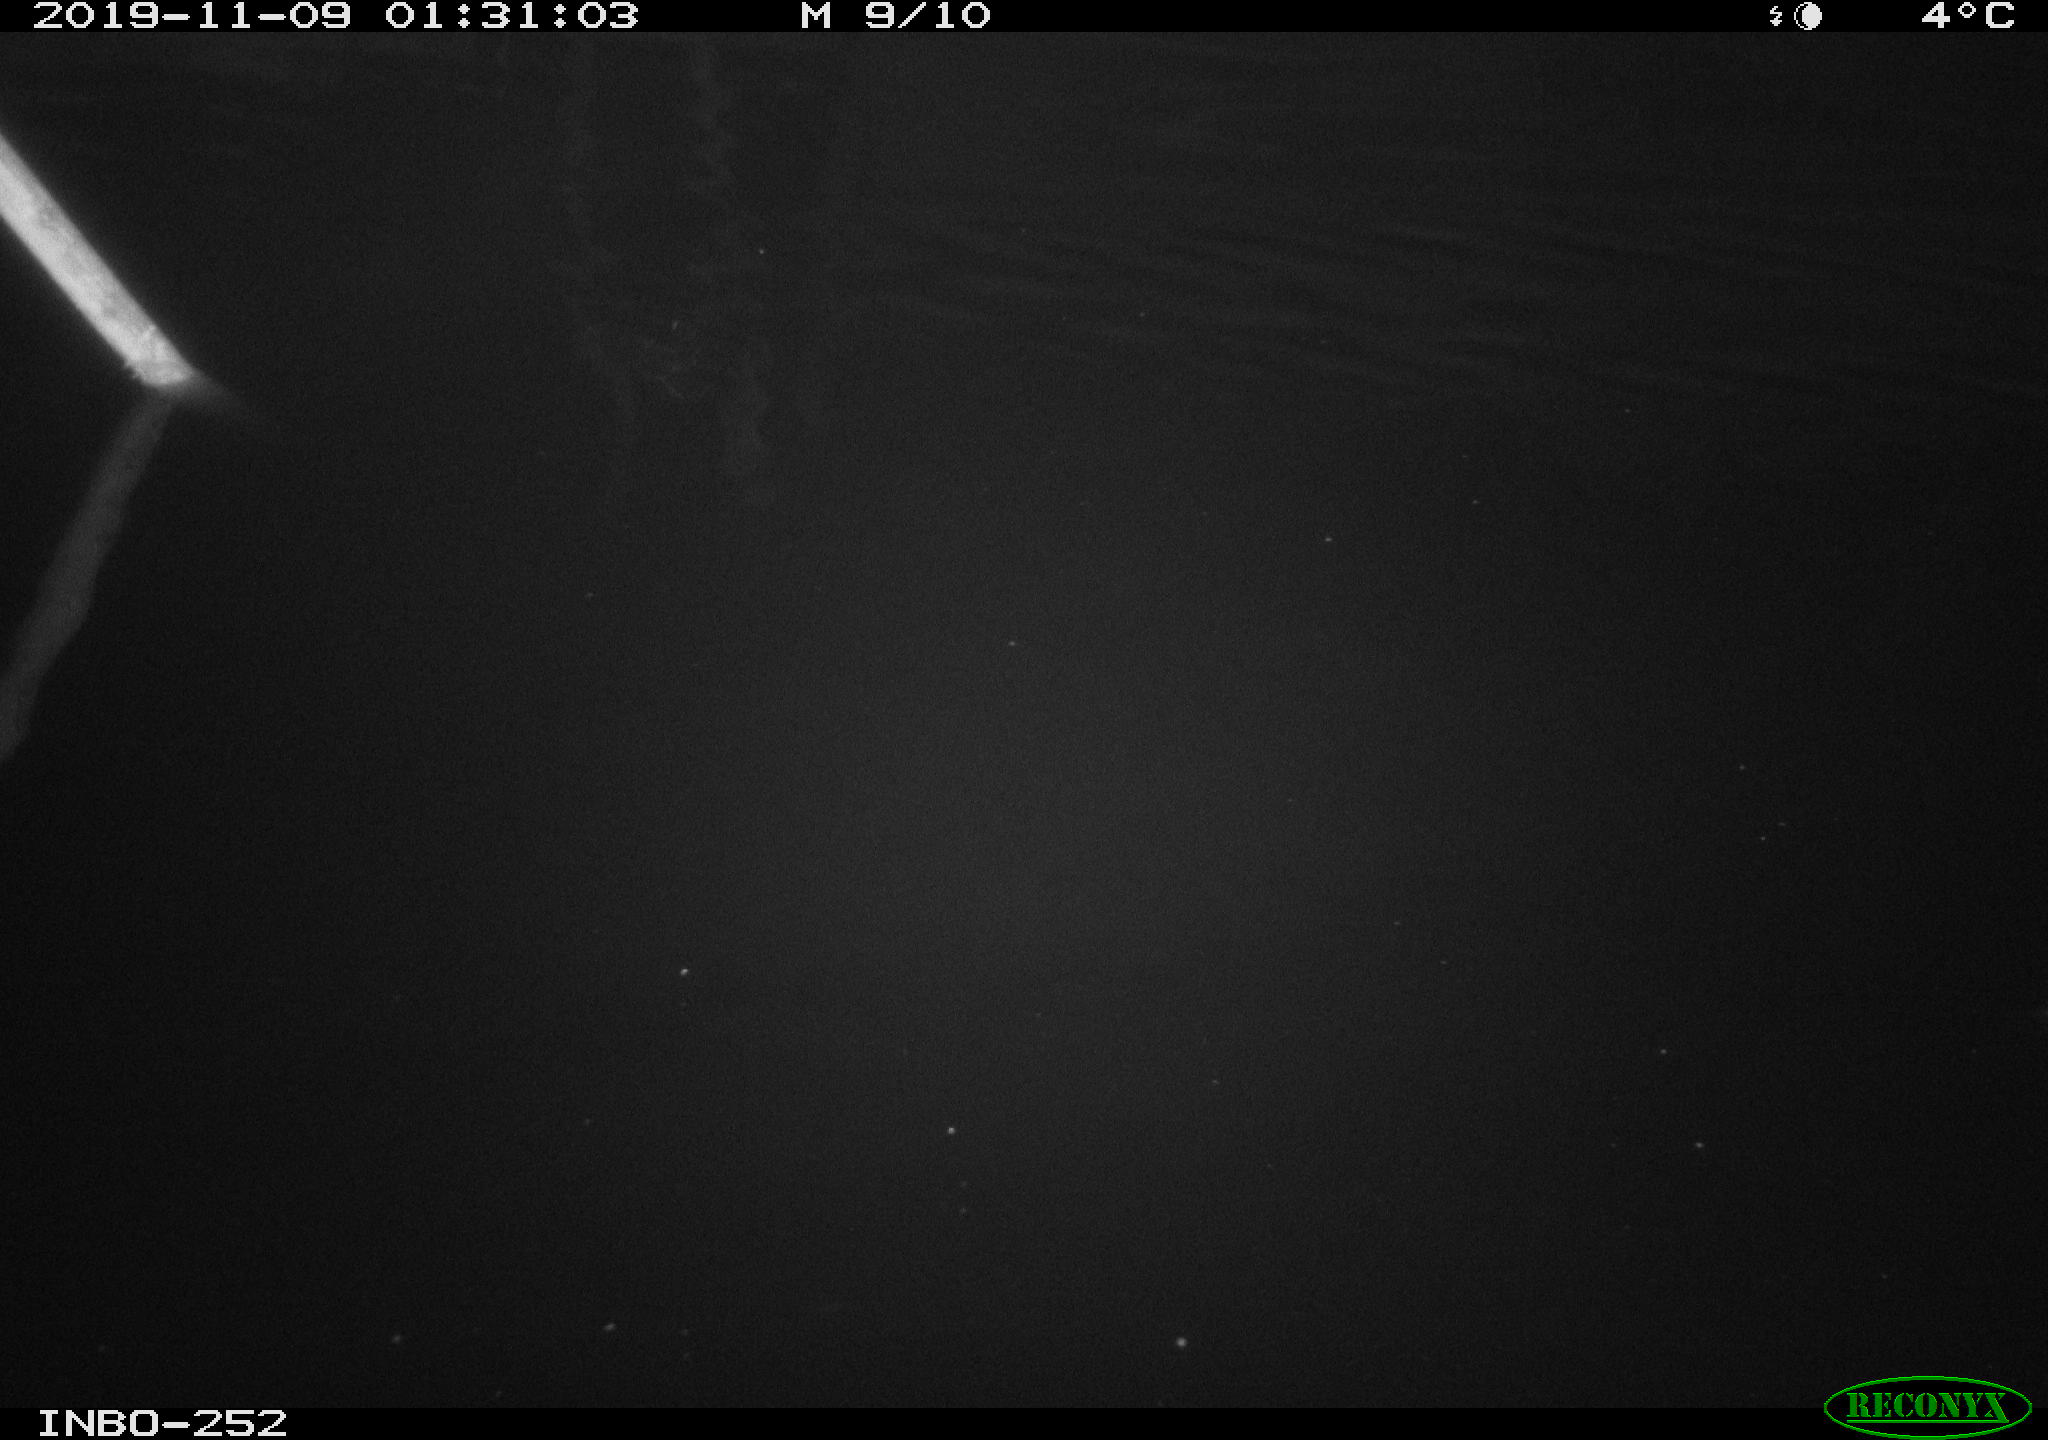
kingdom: Animalia
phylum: Chordata
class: Aves
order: Anseriformes
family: Anatidae
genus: Anas
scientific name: Anas platyrhynchos
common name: Mallard
